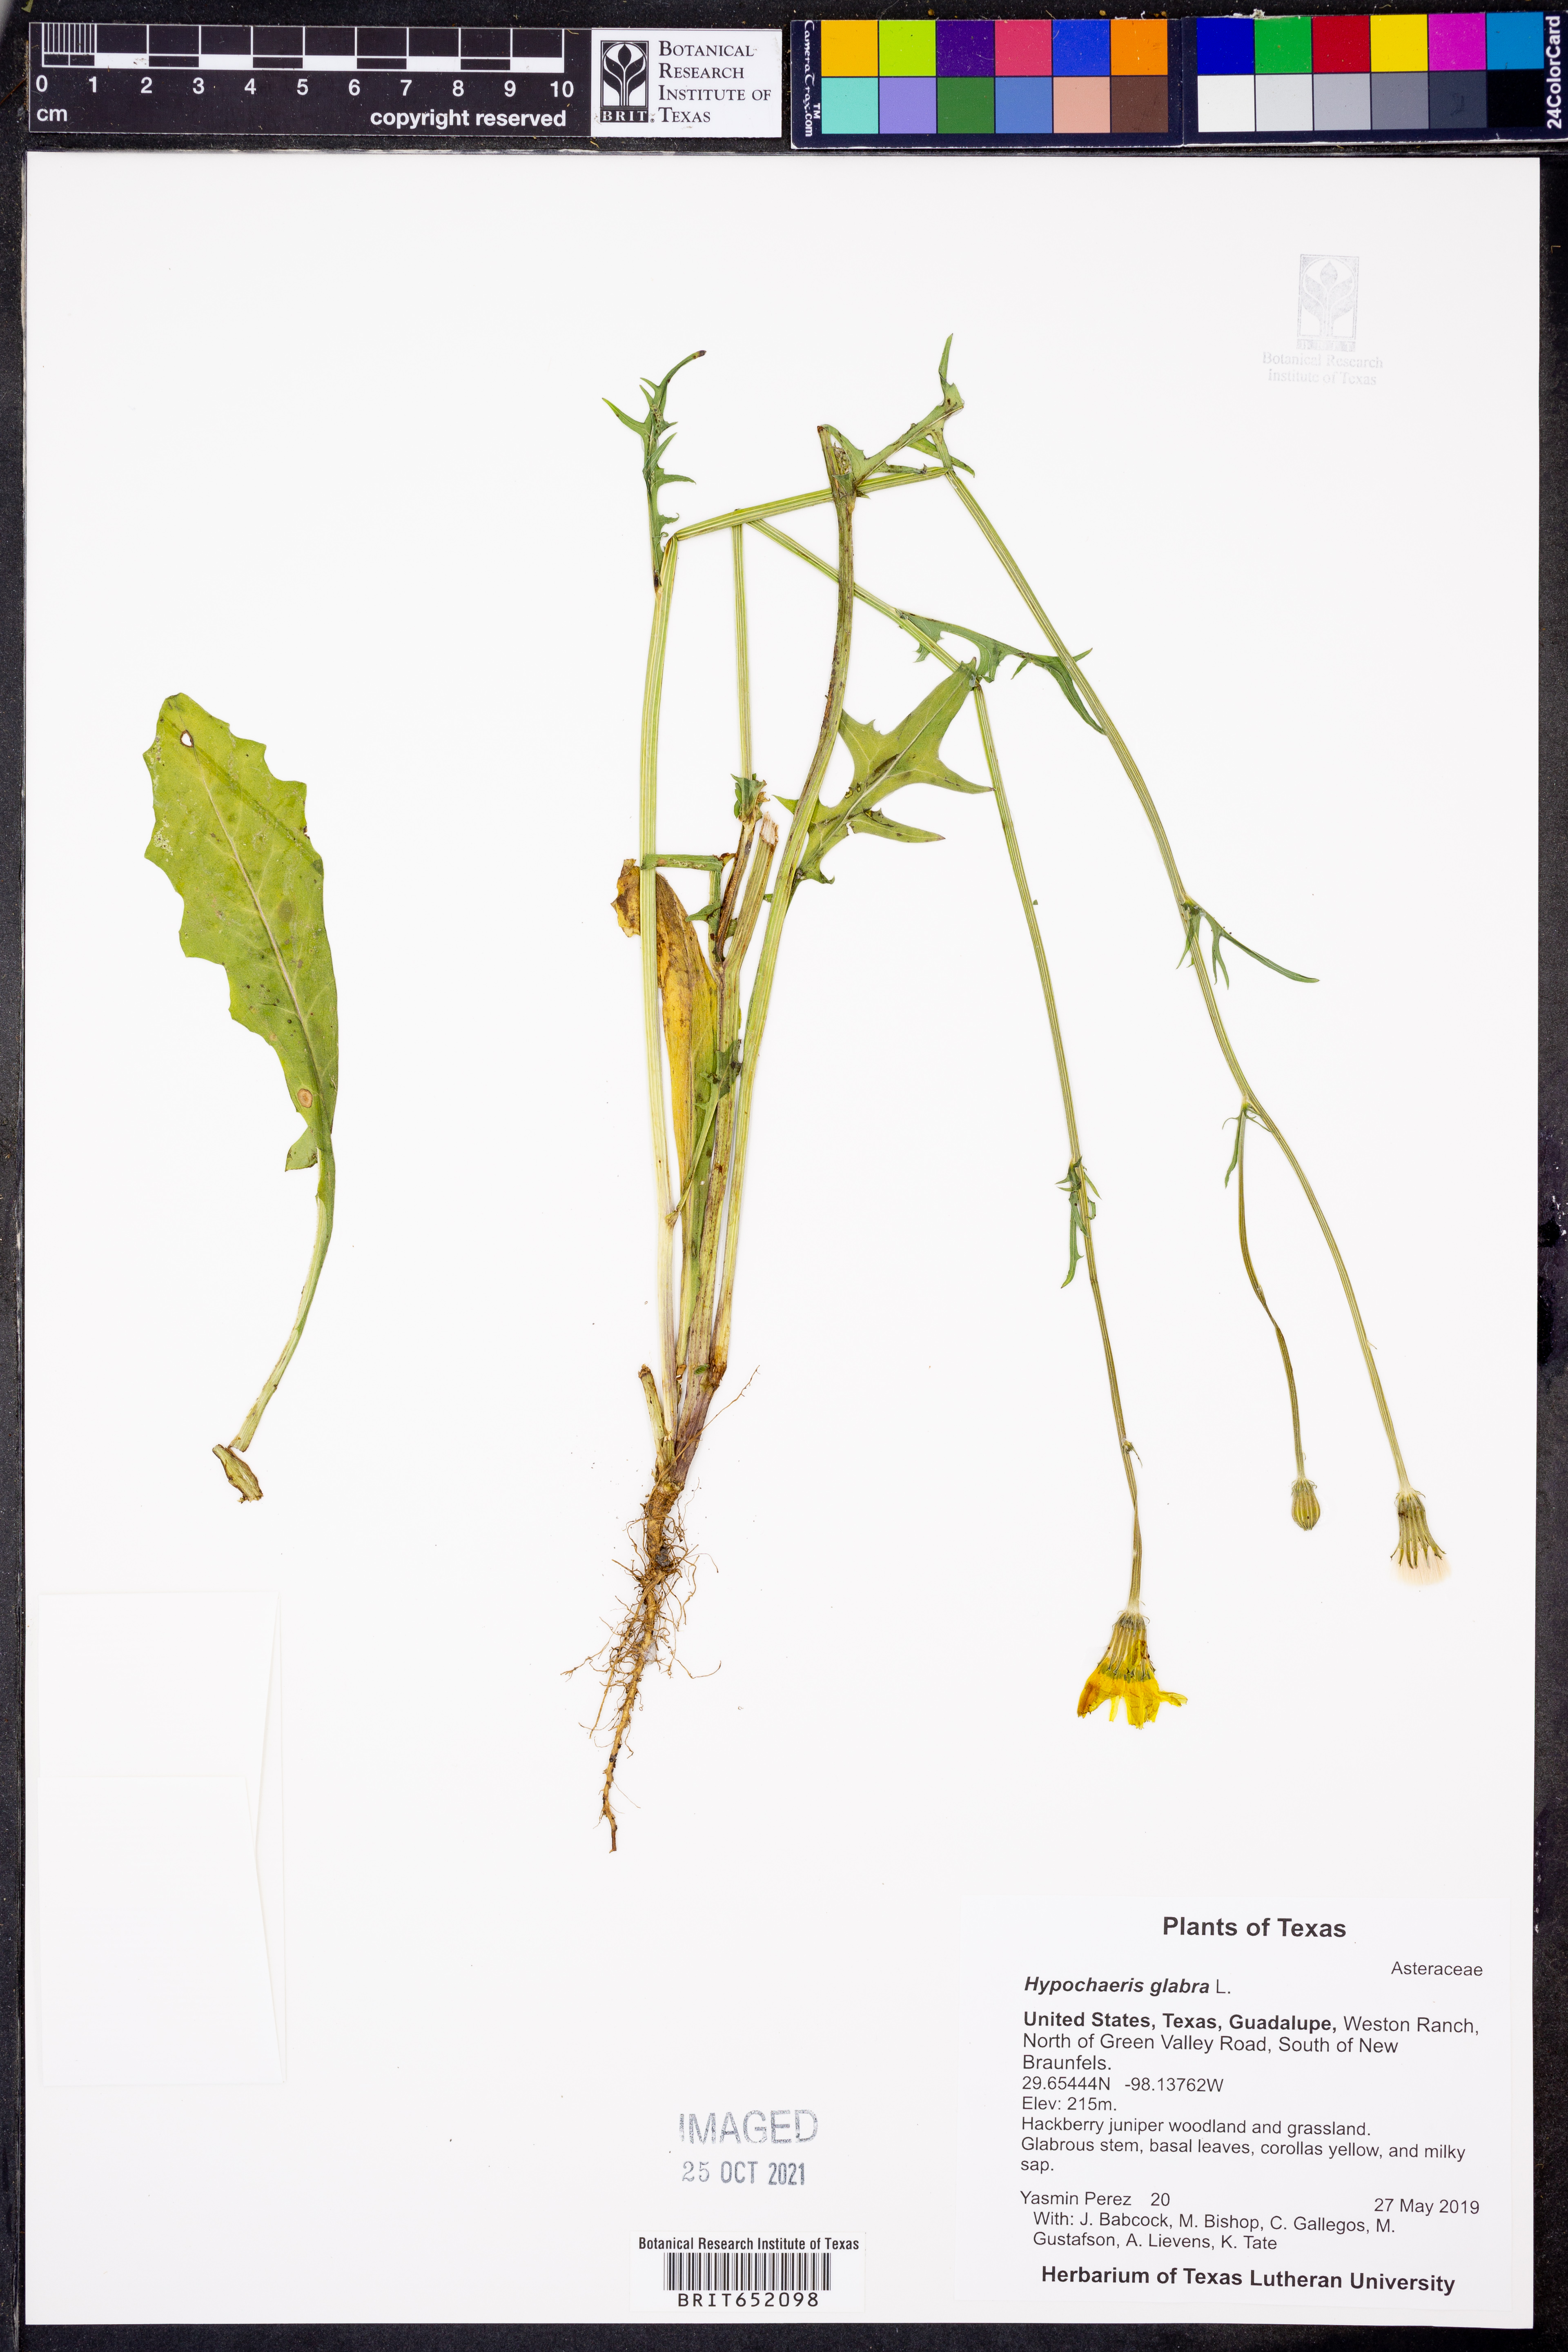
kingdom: Plantae
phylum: Tracheophyta
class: Magnoliopsida
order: Asterales
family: Asteraceae
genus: Hypochaeris
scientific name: Hypochaeris glabra
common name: Smooth catsear
